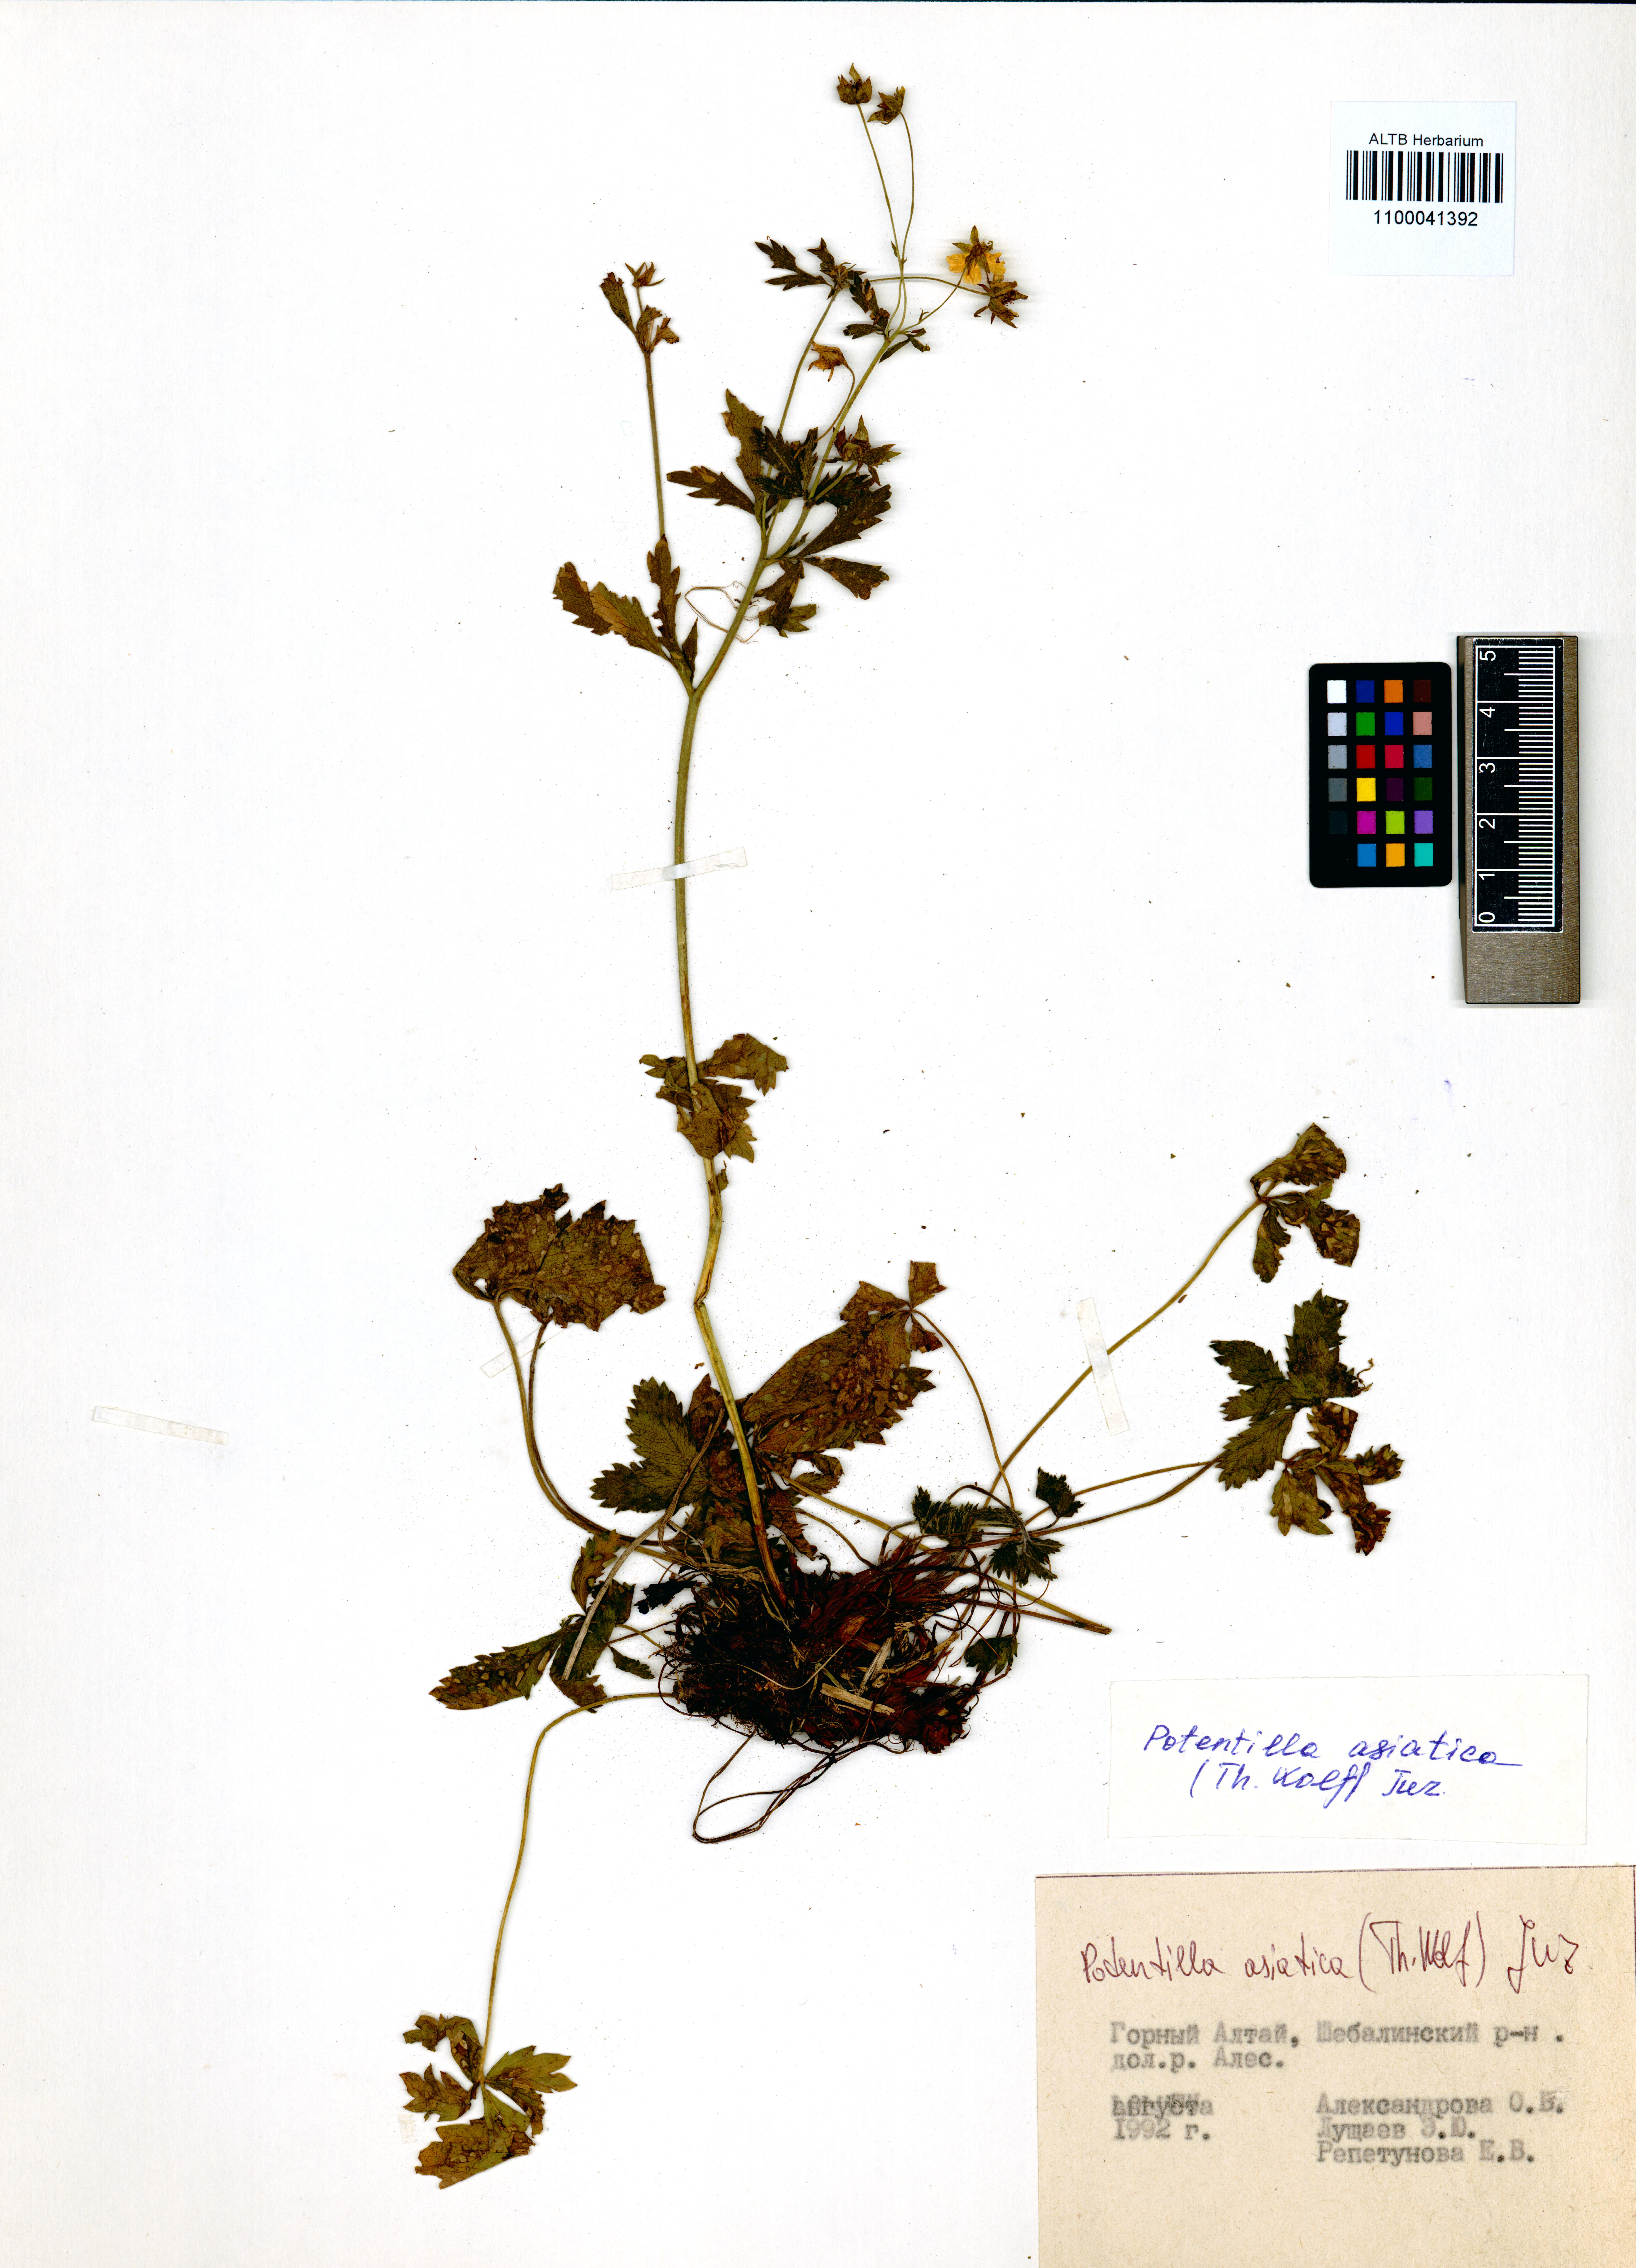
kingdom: Plantae
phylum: Tracheophyta
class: Magnoliopsida
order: Rosales
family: Rosaceae
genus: Potentilla
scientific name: Potentilla asiatica
